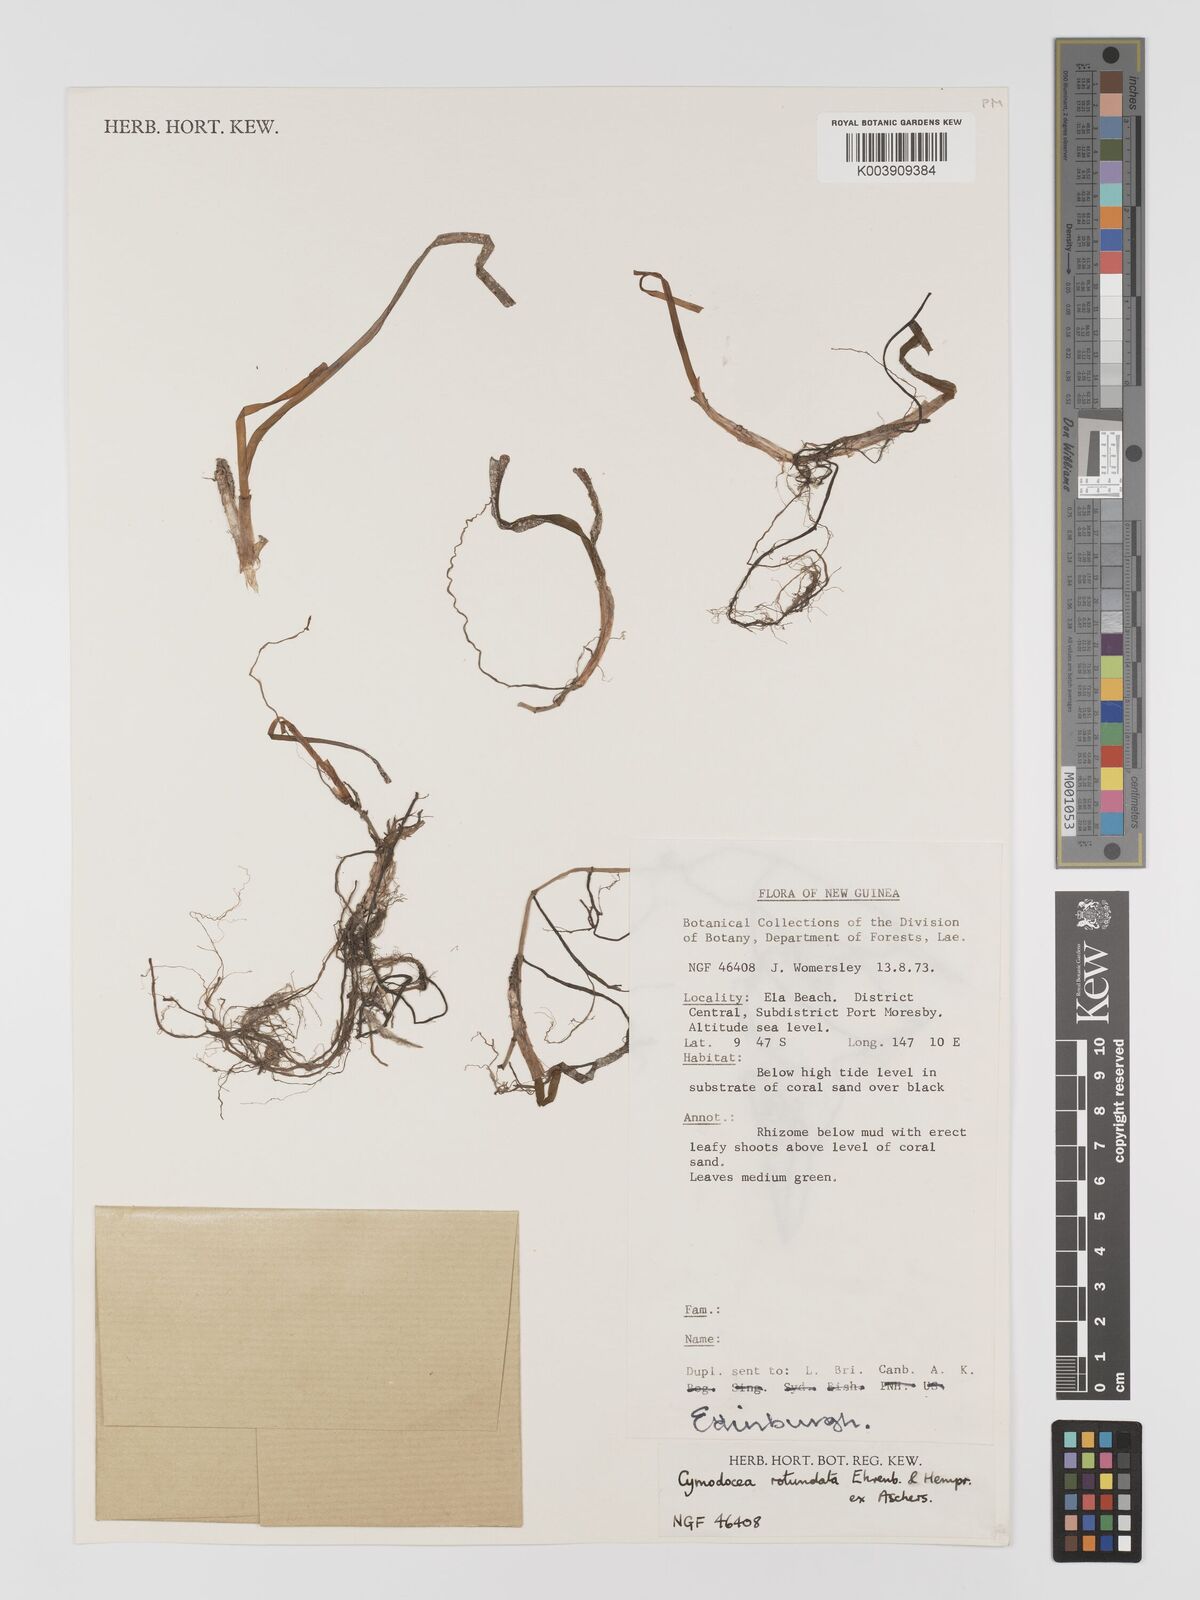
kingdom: Plantae
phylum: Tracheophyta
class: Liliopsida
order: Alismatales
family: Cymodoceaceae
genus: Cymodocea
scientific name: Cymodocea rotundata
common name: Species code: cr
